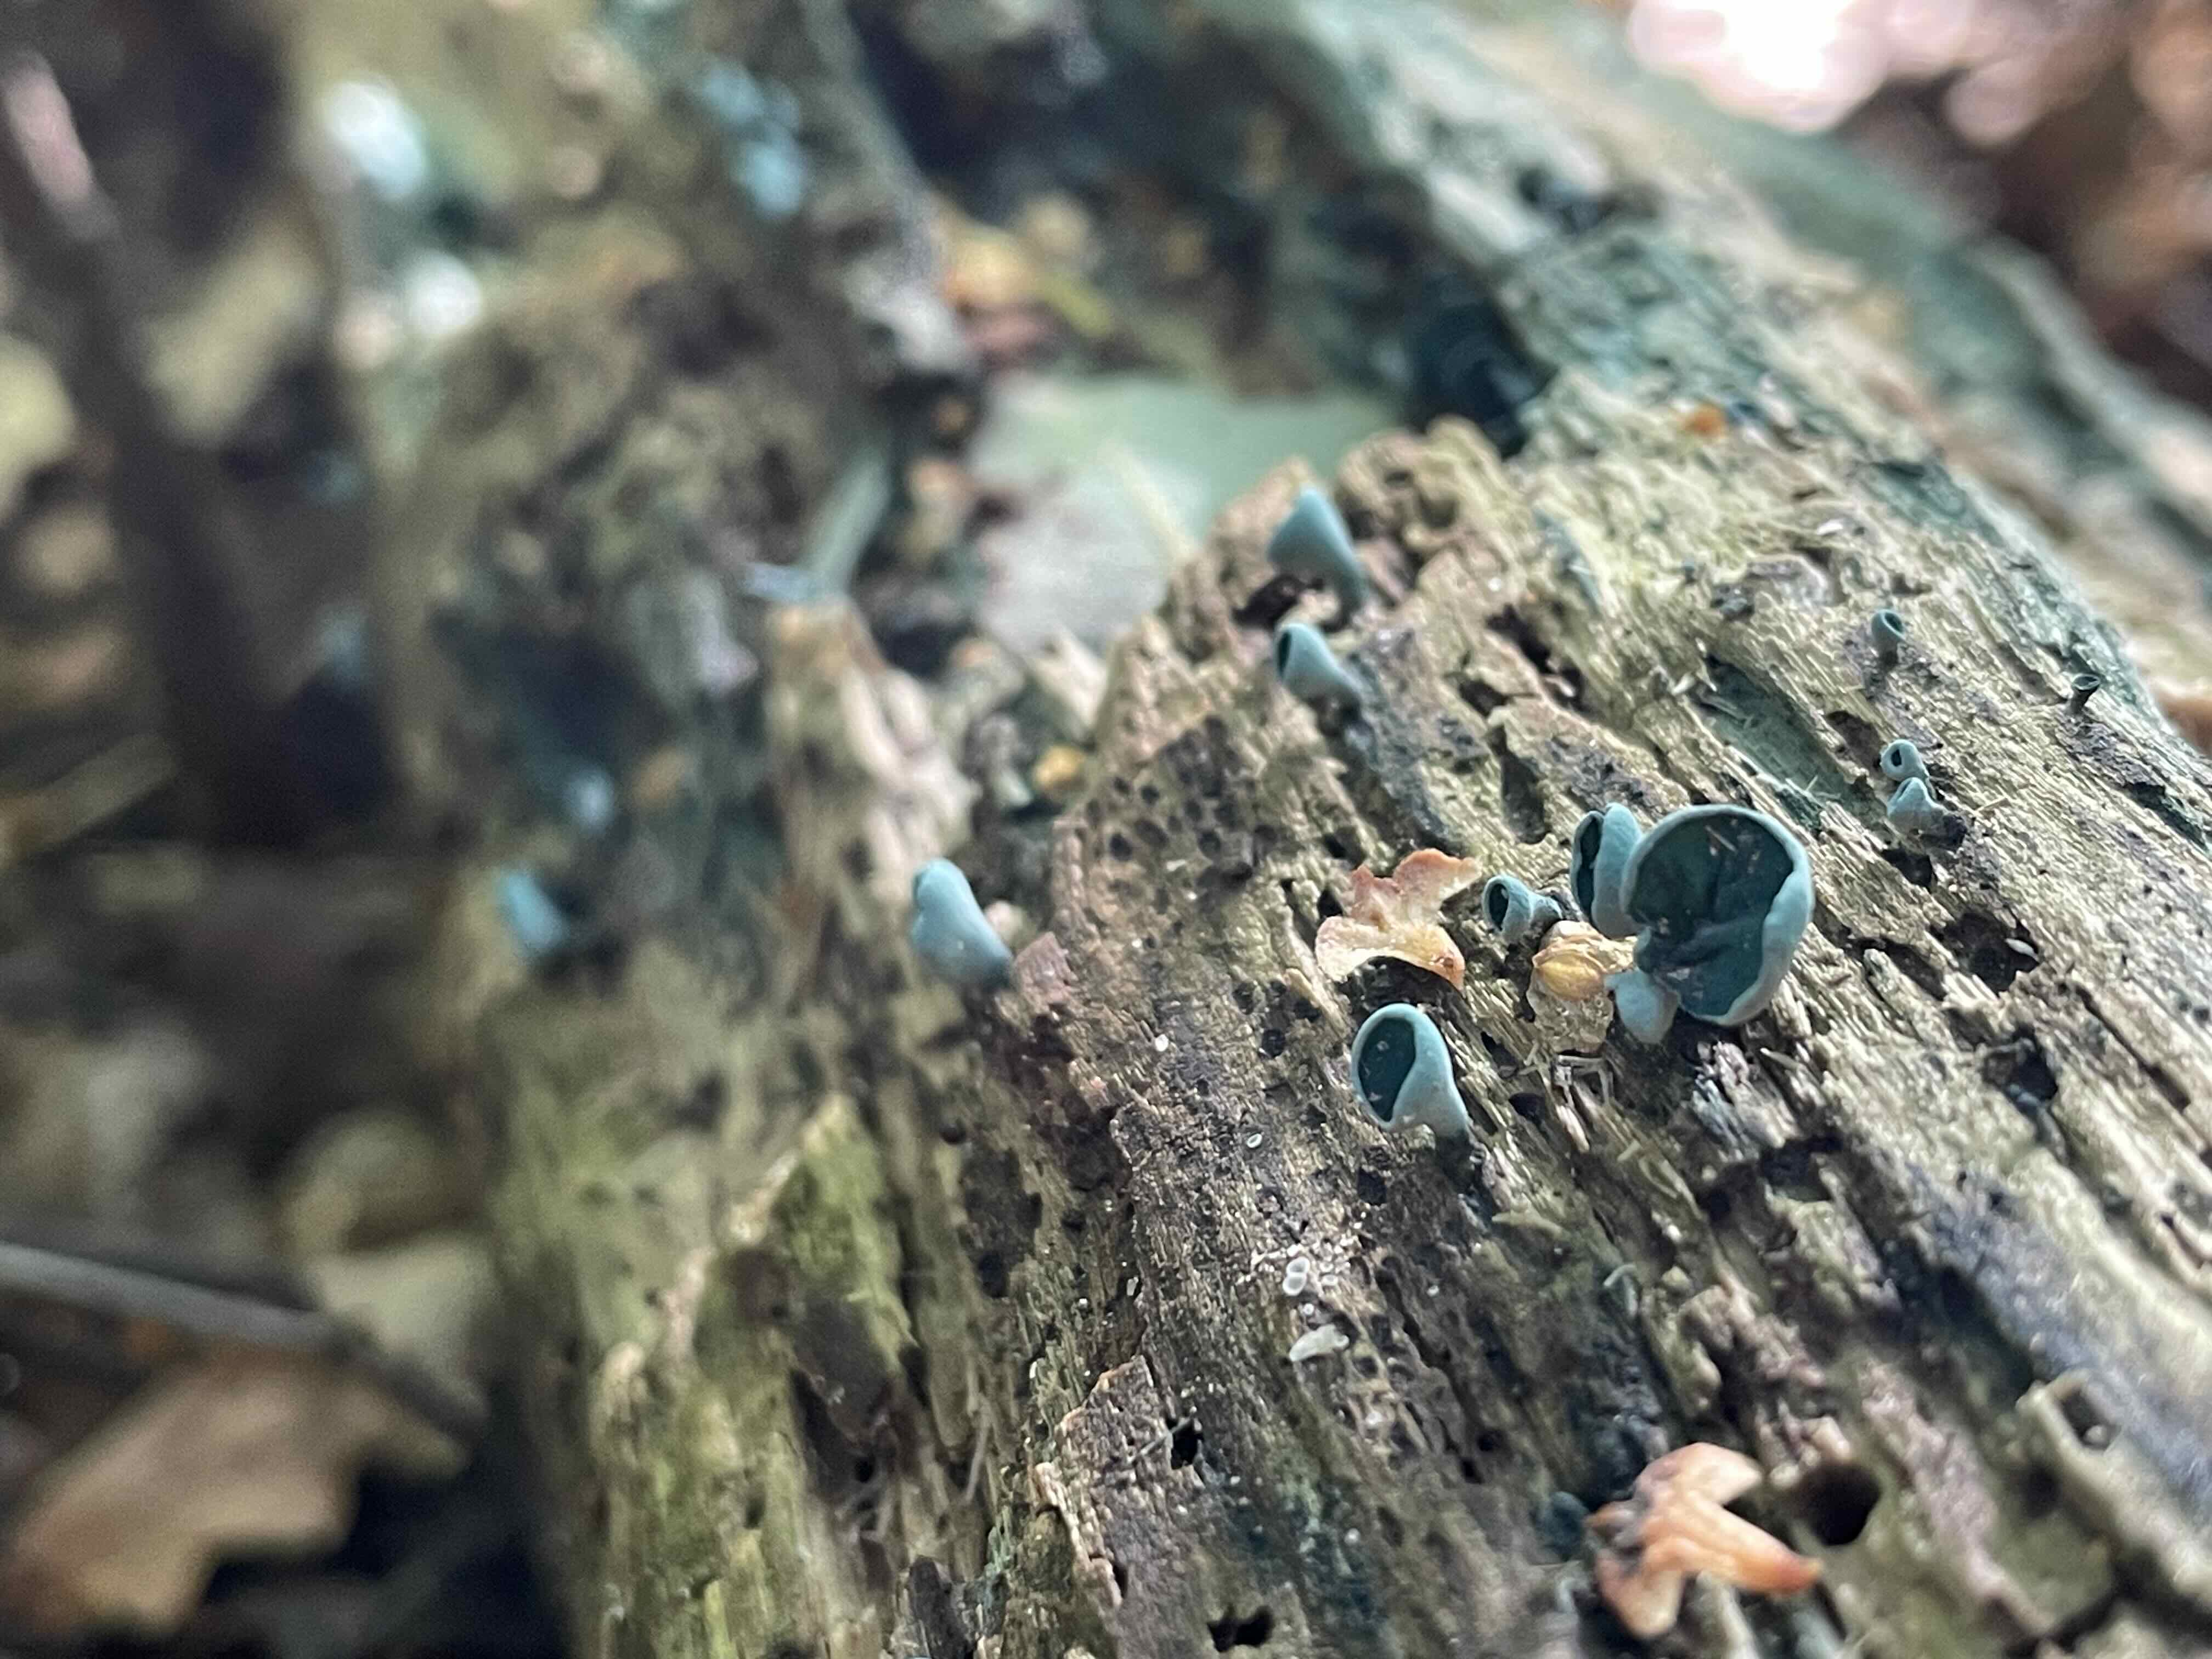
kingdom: Fungi
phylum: Ascomycota
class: Leotiomycetes
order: Helotiales
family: Chlorociboriaceae
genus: Chlorociboria
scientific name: Chlorociboria aeruginascens
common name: almindelig grønskive
